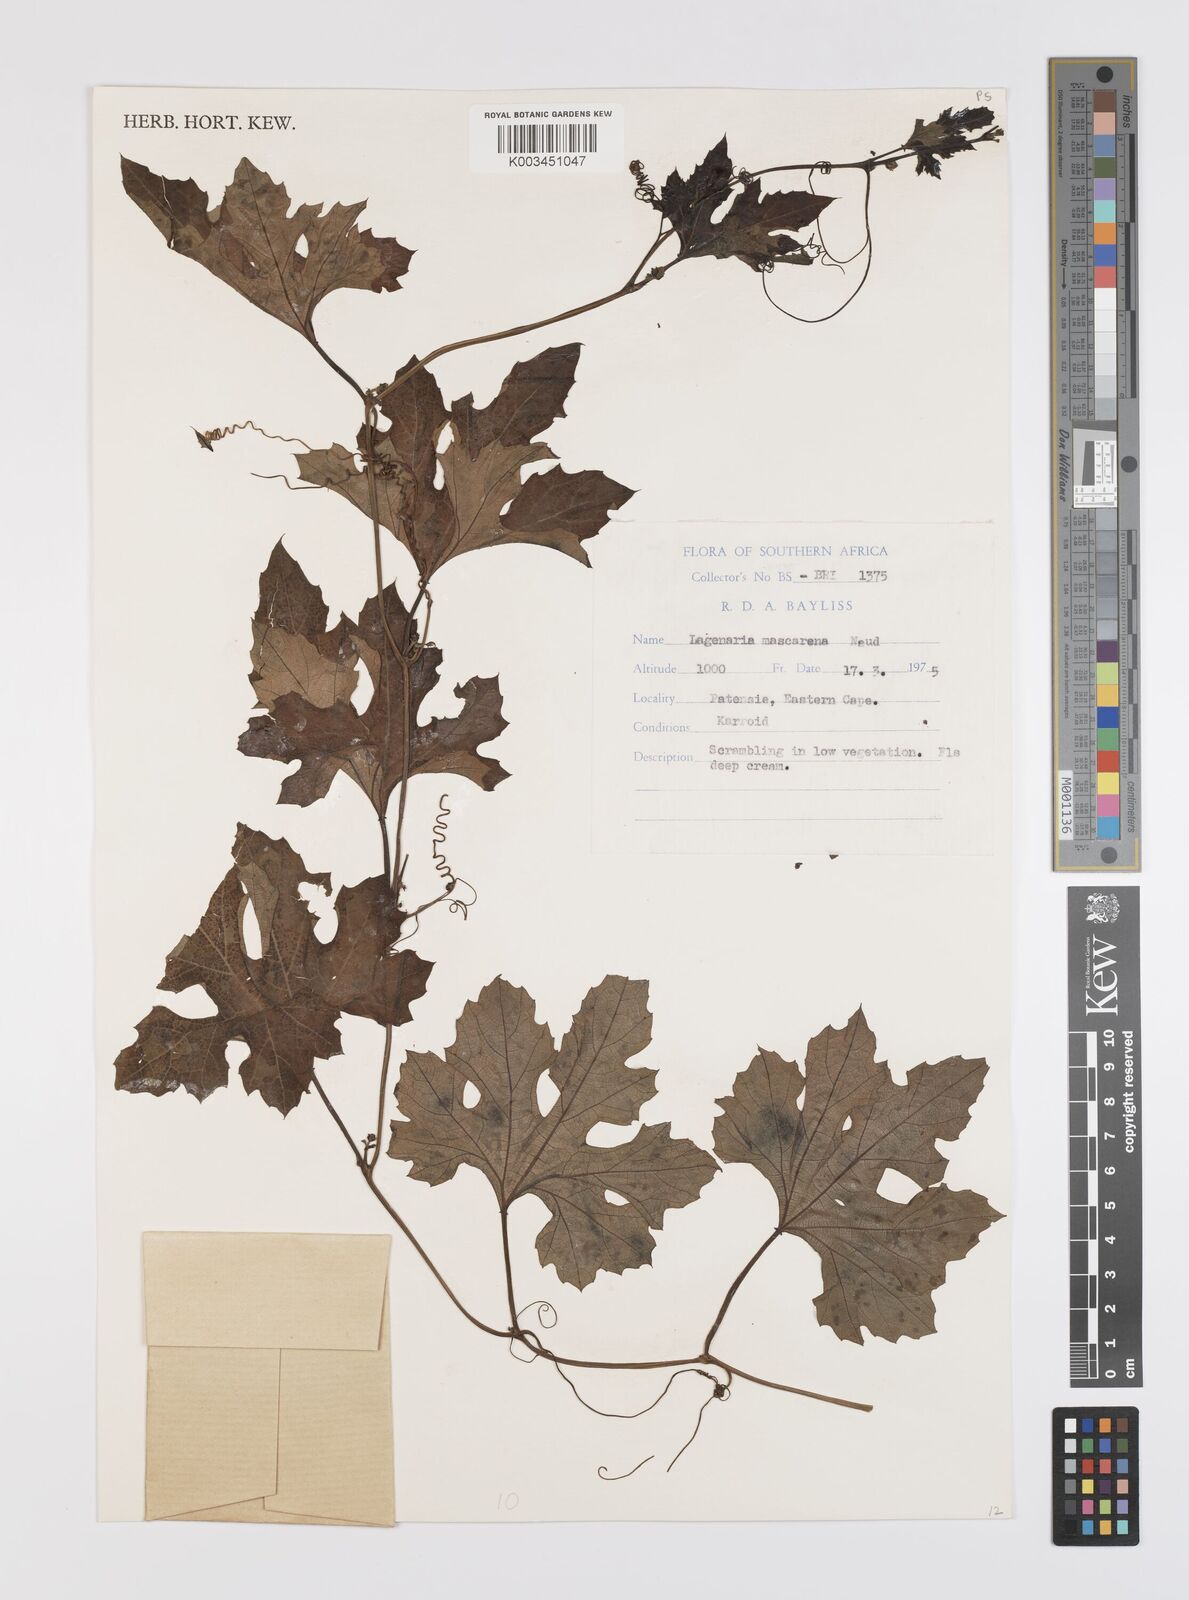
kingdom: Plantae
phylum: Tracheophyta
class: Magnoliopsida
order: Cucurbitales
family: Cucurbitaceae
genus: Lagenaria
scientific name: Lagenaria sphaerica
